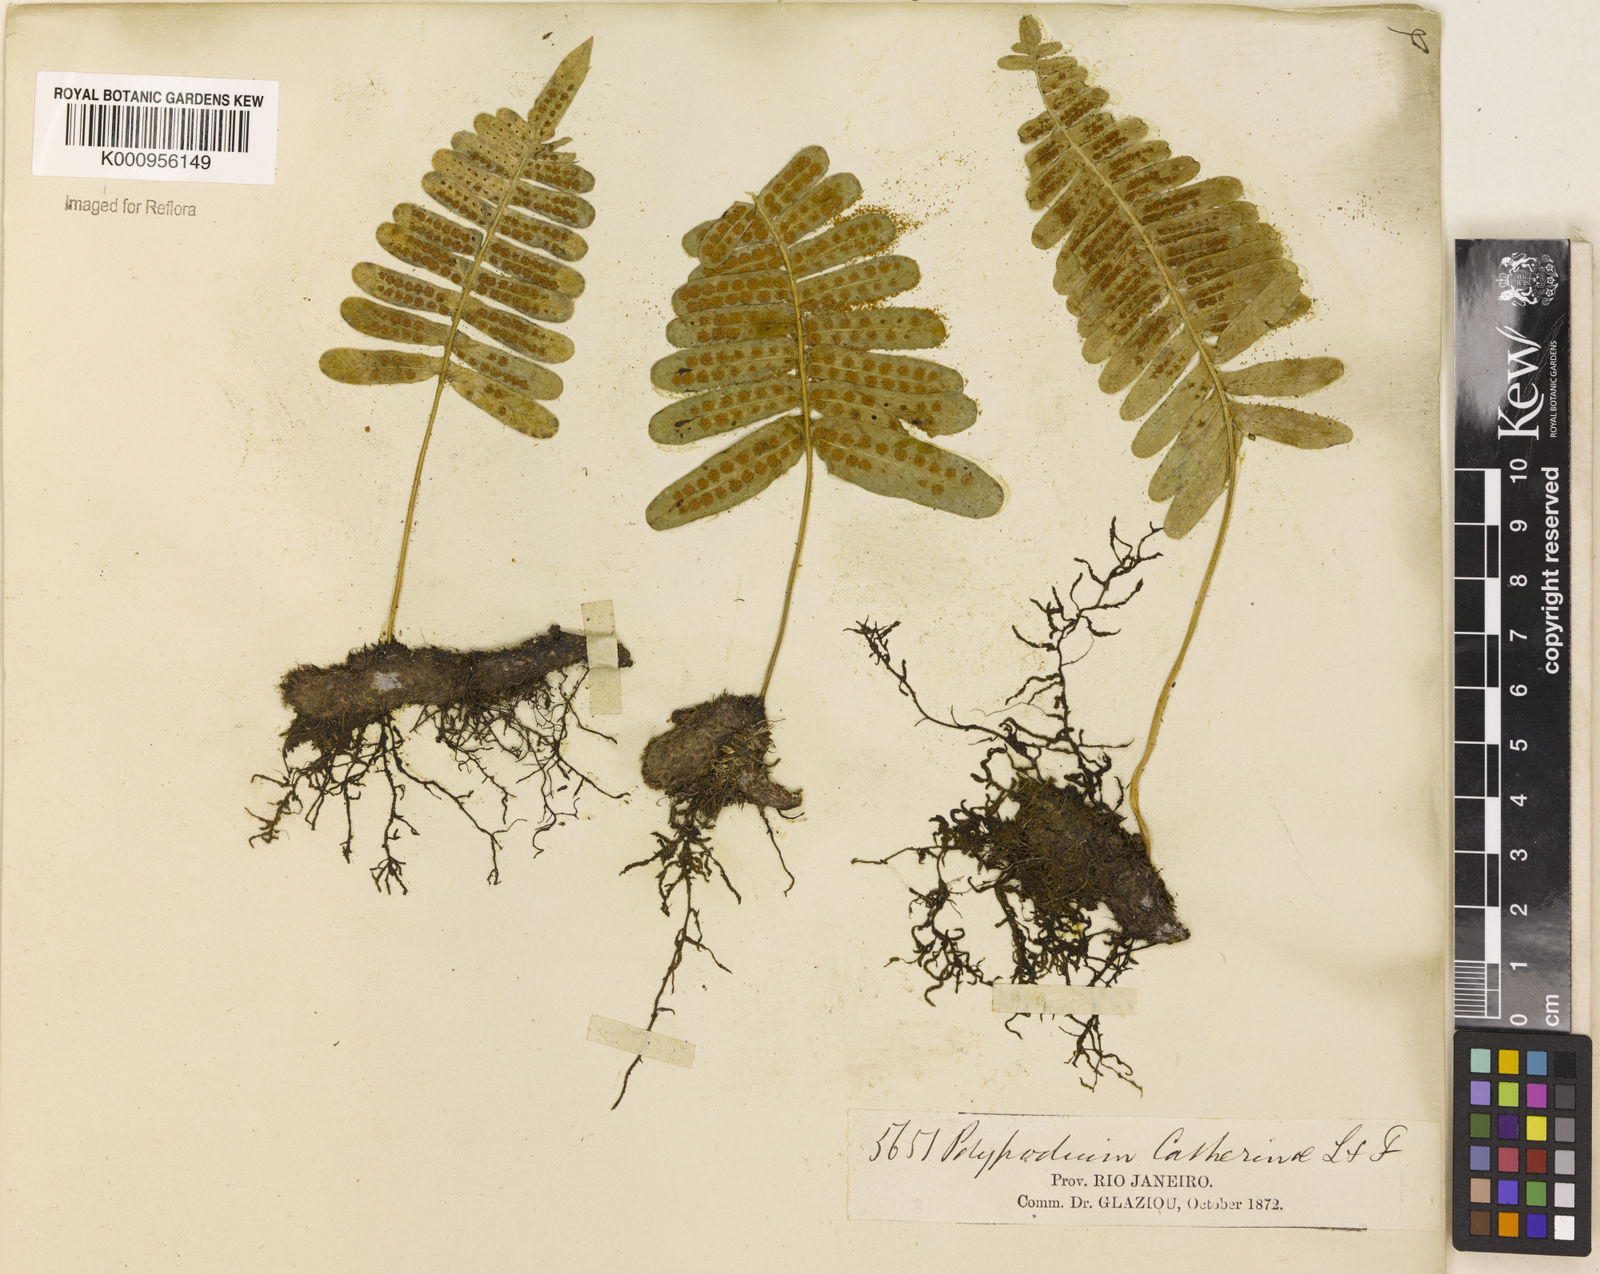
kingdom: Plantae
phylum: Tracheophyta
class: Polypodiopsida
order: Polypodiales
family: Polypodiaceae
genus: Serpocaulon
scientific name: Serpocaulon catharinae
